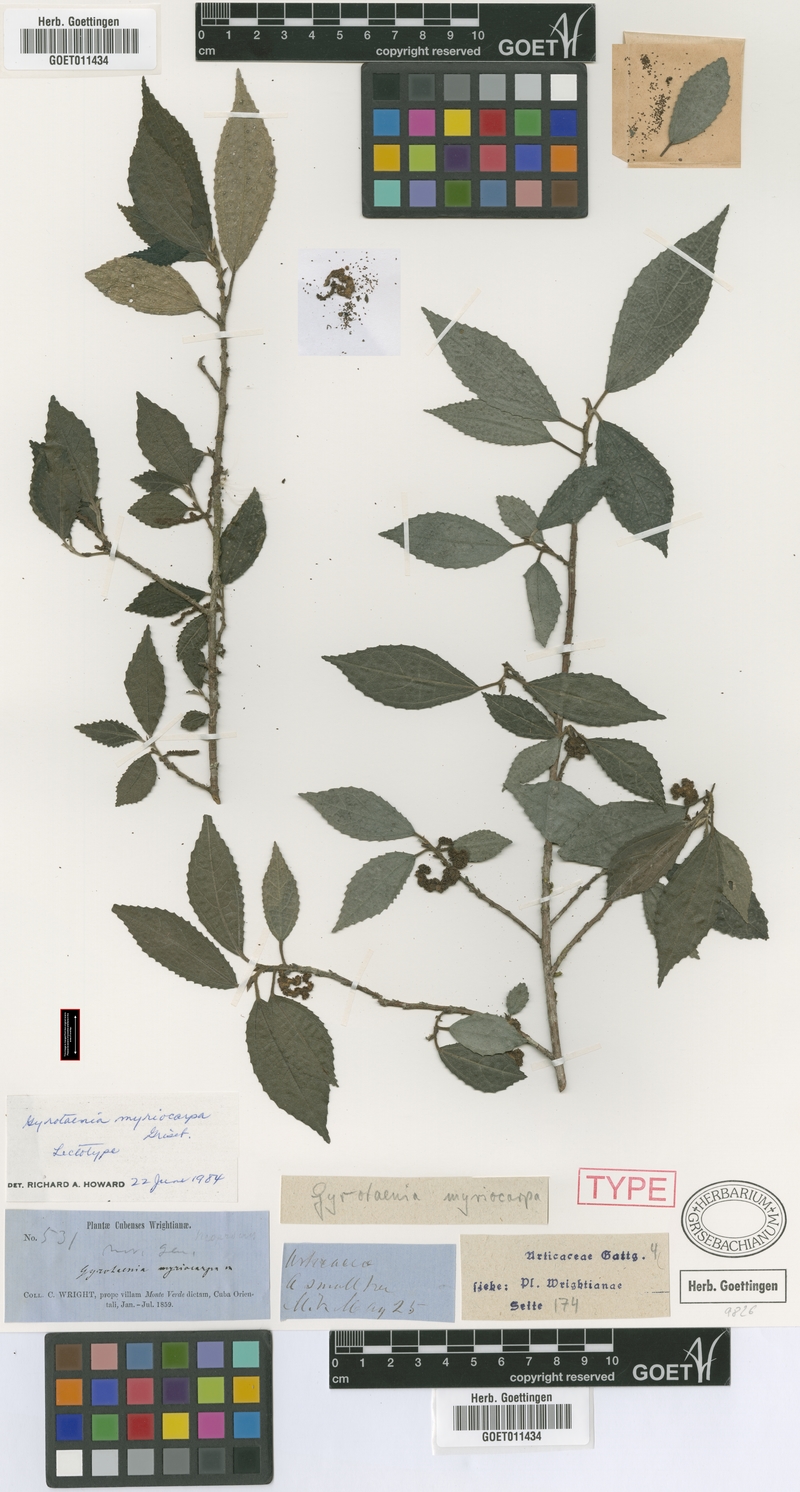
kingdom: Plantae
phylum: Tracheophyta
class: Magnoliopsida
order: Rosales
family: Urticaceae
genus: Gyrotaenia
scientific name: Gyrotaenia myriocarpa
